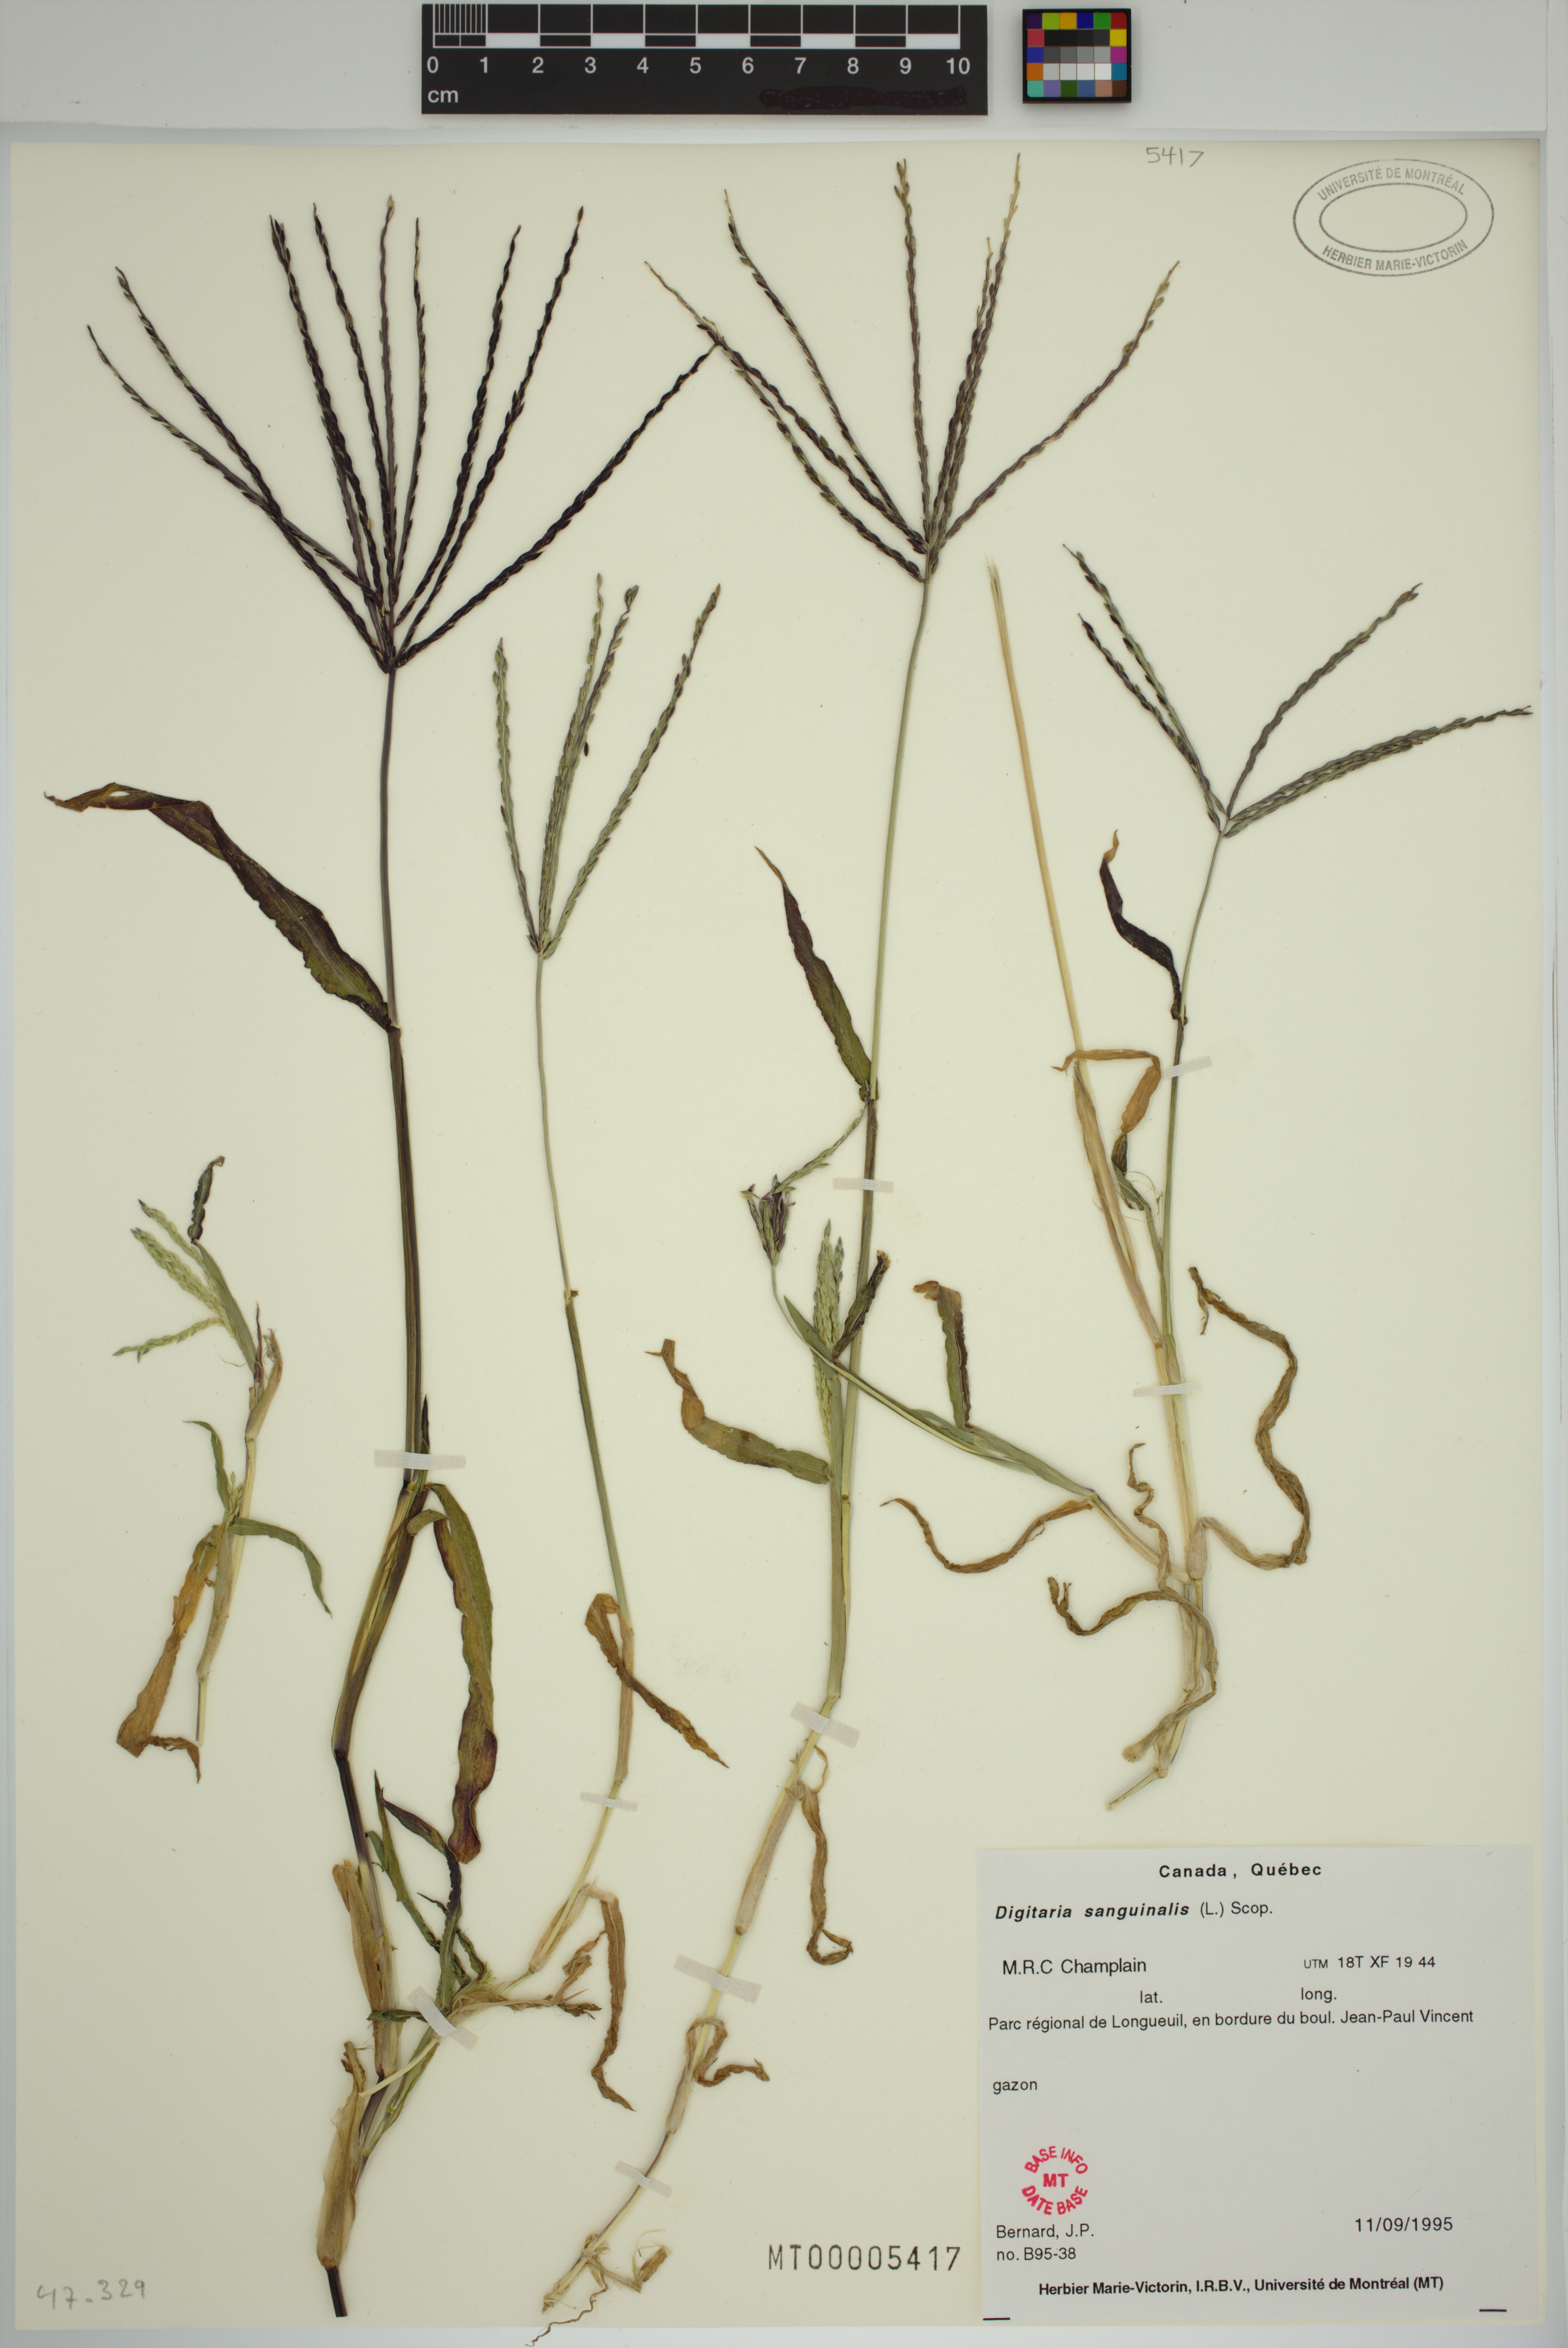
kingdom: Plantae
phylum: Tracheophyta
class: Liliopsida
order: Poales
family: Poaceae
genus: Digitaria
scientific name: Digitaria sanguinalis
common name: Hairy crabgrass
